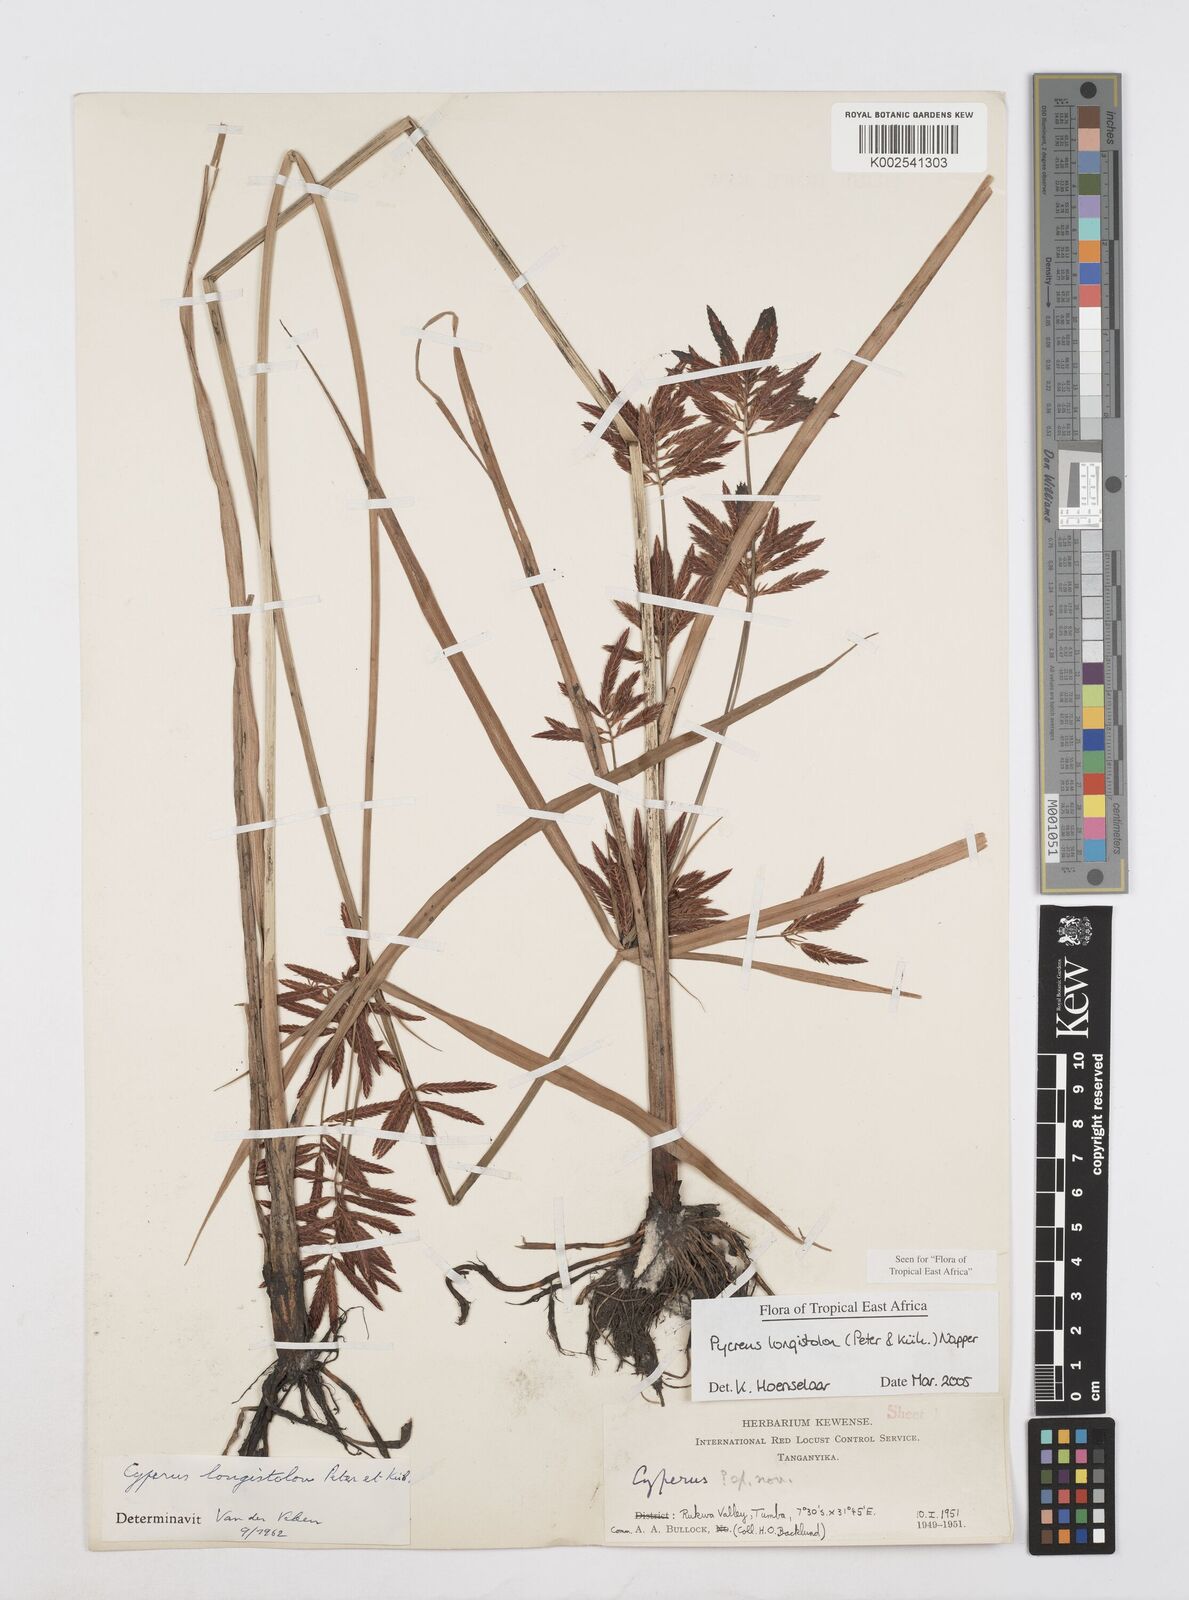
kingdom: Plantae
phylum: Tracheophyta
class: Liliopsida
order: Poales
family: Cyperaceae
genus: Cyperus
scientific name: Cyperus chrysanthus
